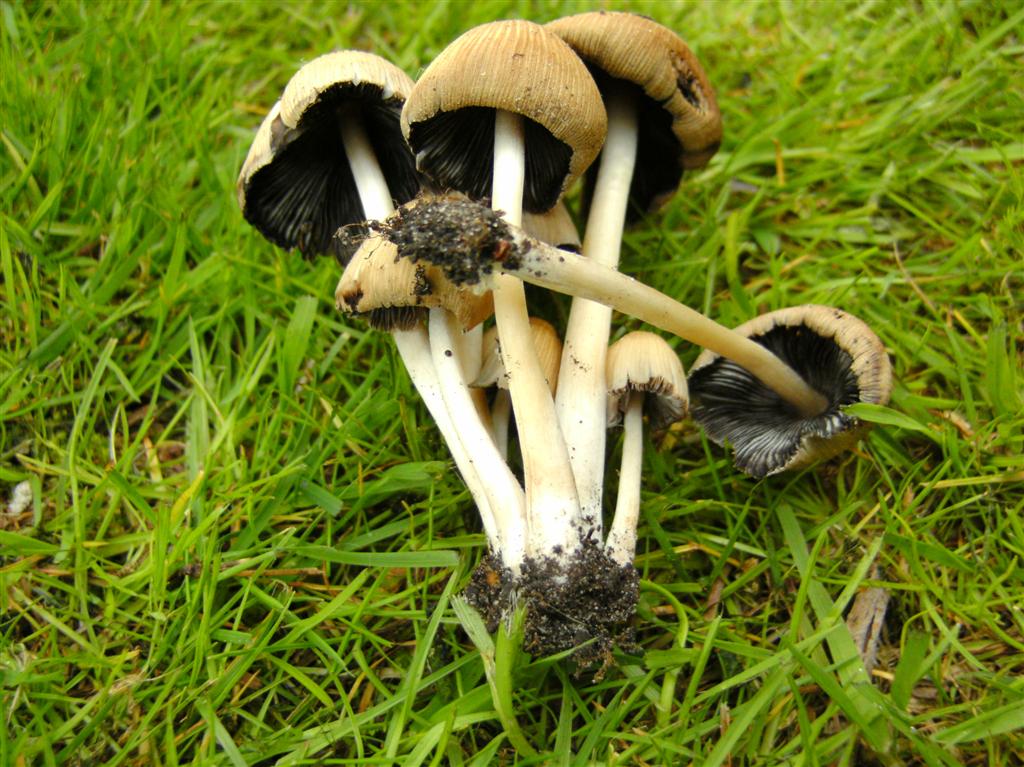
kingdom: Fungi
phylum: Basidiomycota
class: Agaricomycetes
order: Agaricales
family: Psathyrellaceae
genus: Coprinellus
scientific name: Coprinellus micaceus
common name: glimmer-blækhat
